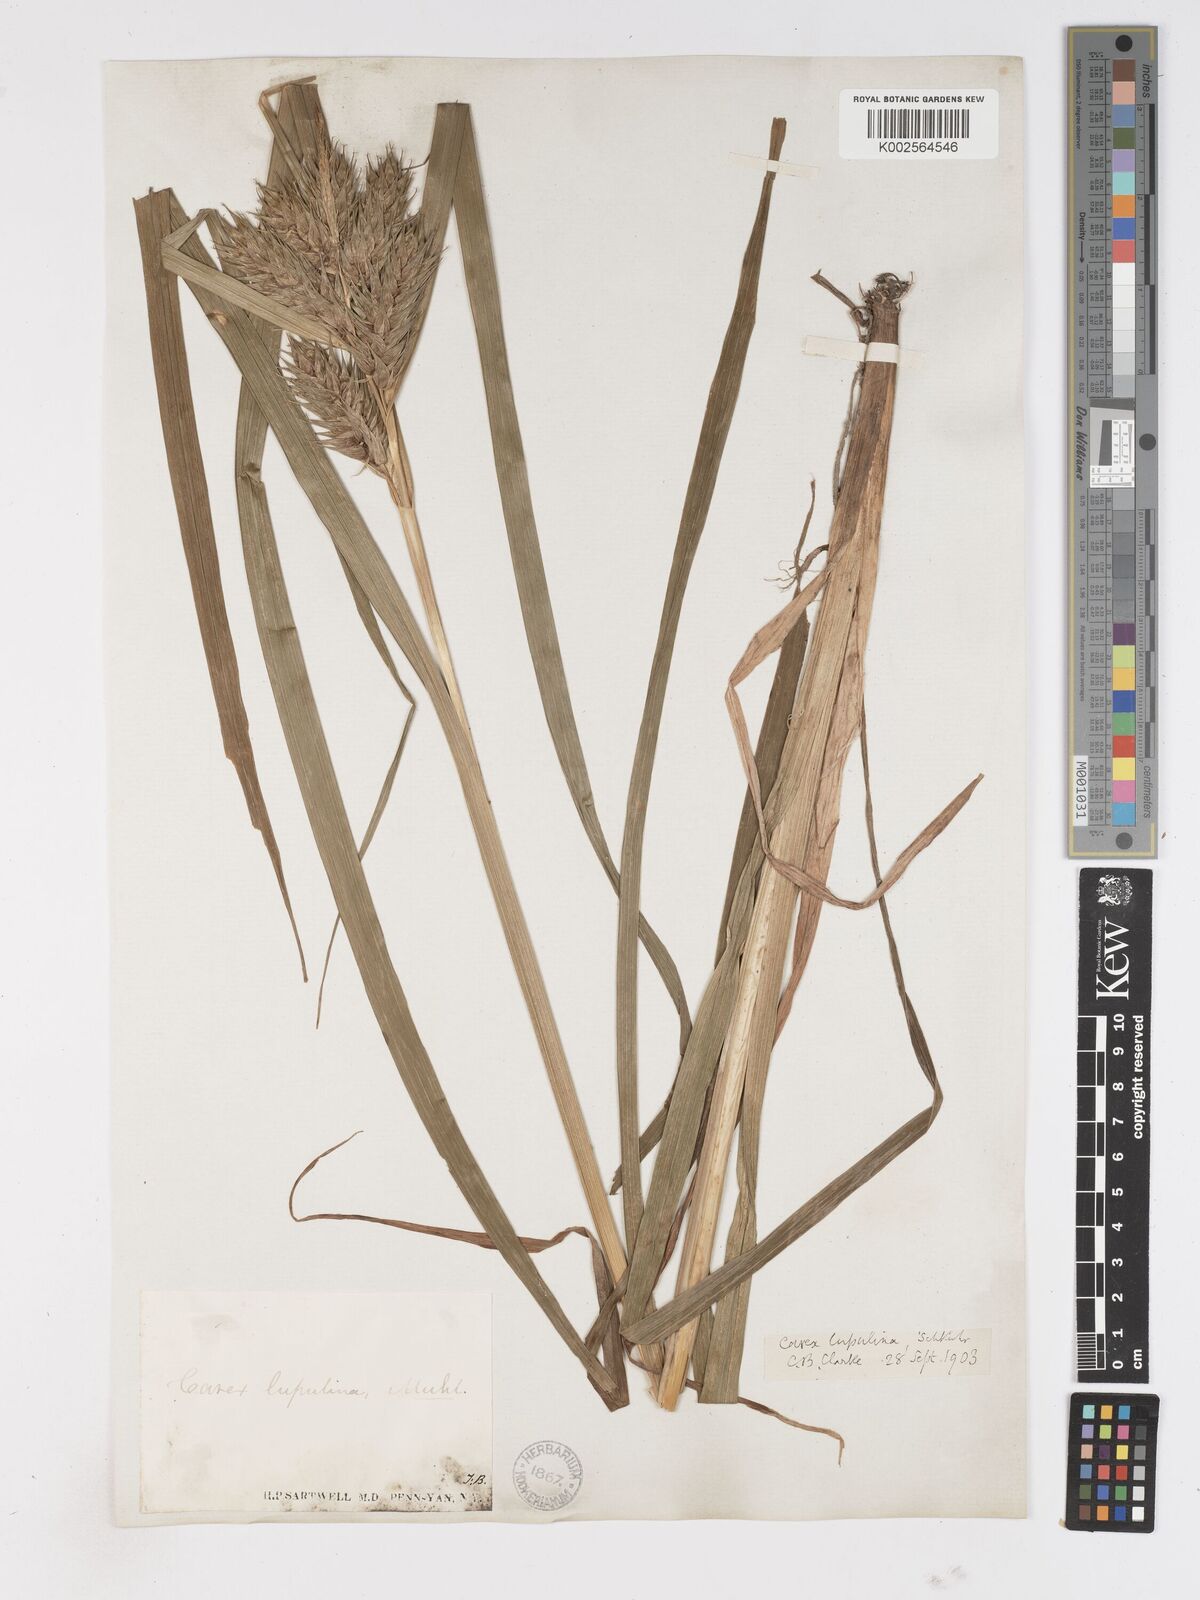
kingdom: Plantae
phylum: Tracheophyta
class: Liliopsida
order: Poales
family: Cyperaceae
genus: Carex
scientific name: Carex lupulina
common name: Hop sedge
